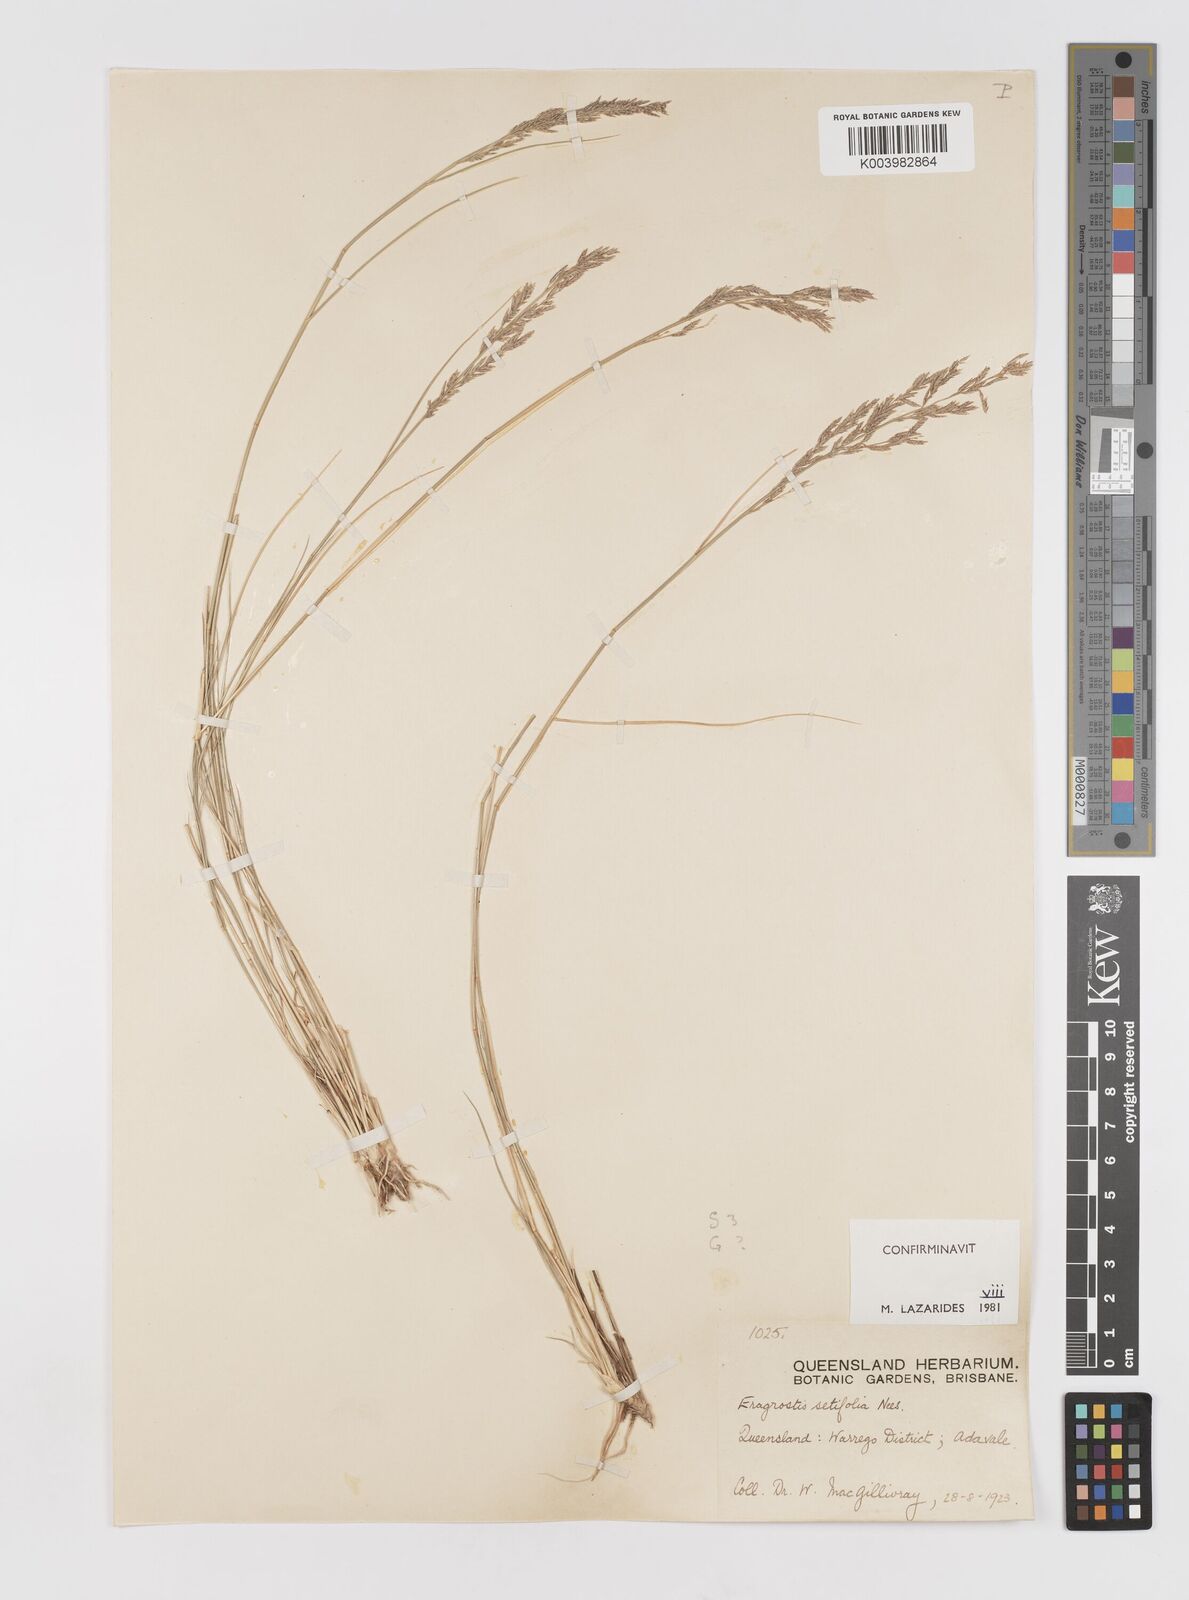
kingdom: Plantae
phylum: Tracheophyta
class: Liliopsida
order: Poales
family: Poaceae
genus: Eragrostis
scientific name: Eragrostis setifolia
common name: Bristleleaf lovegrass
